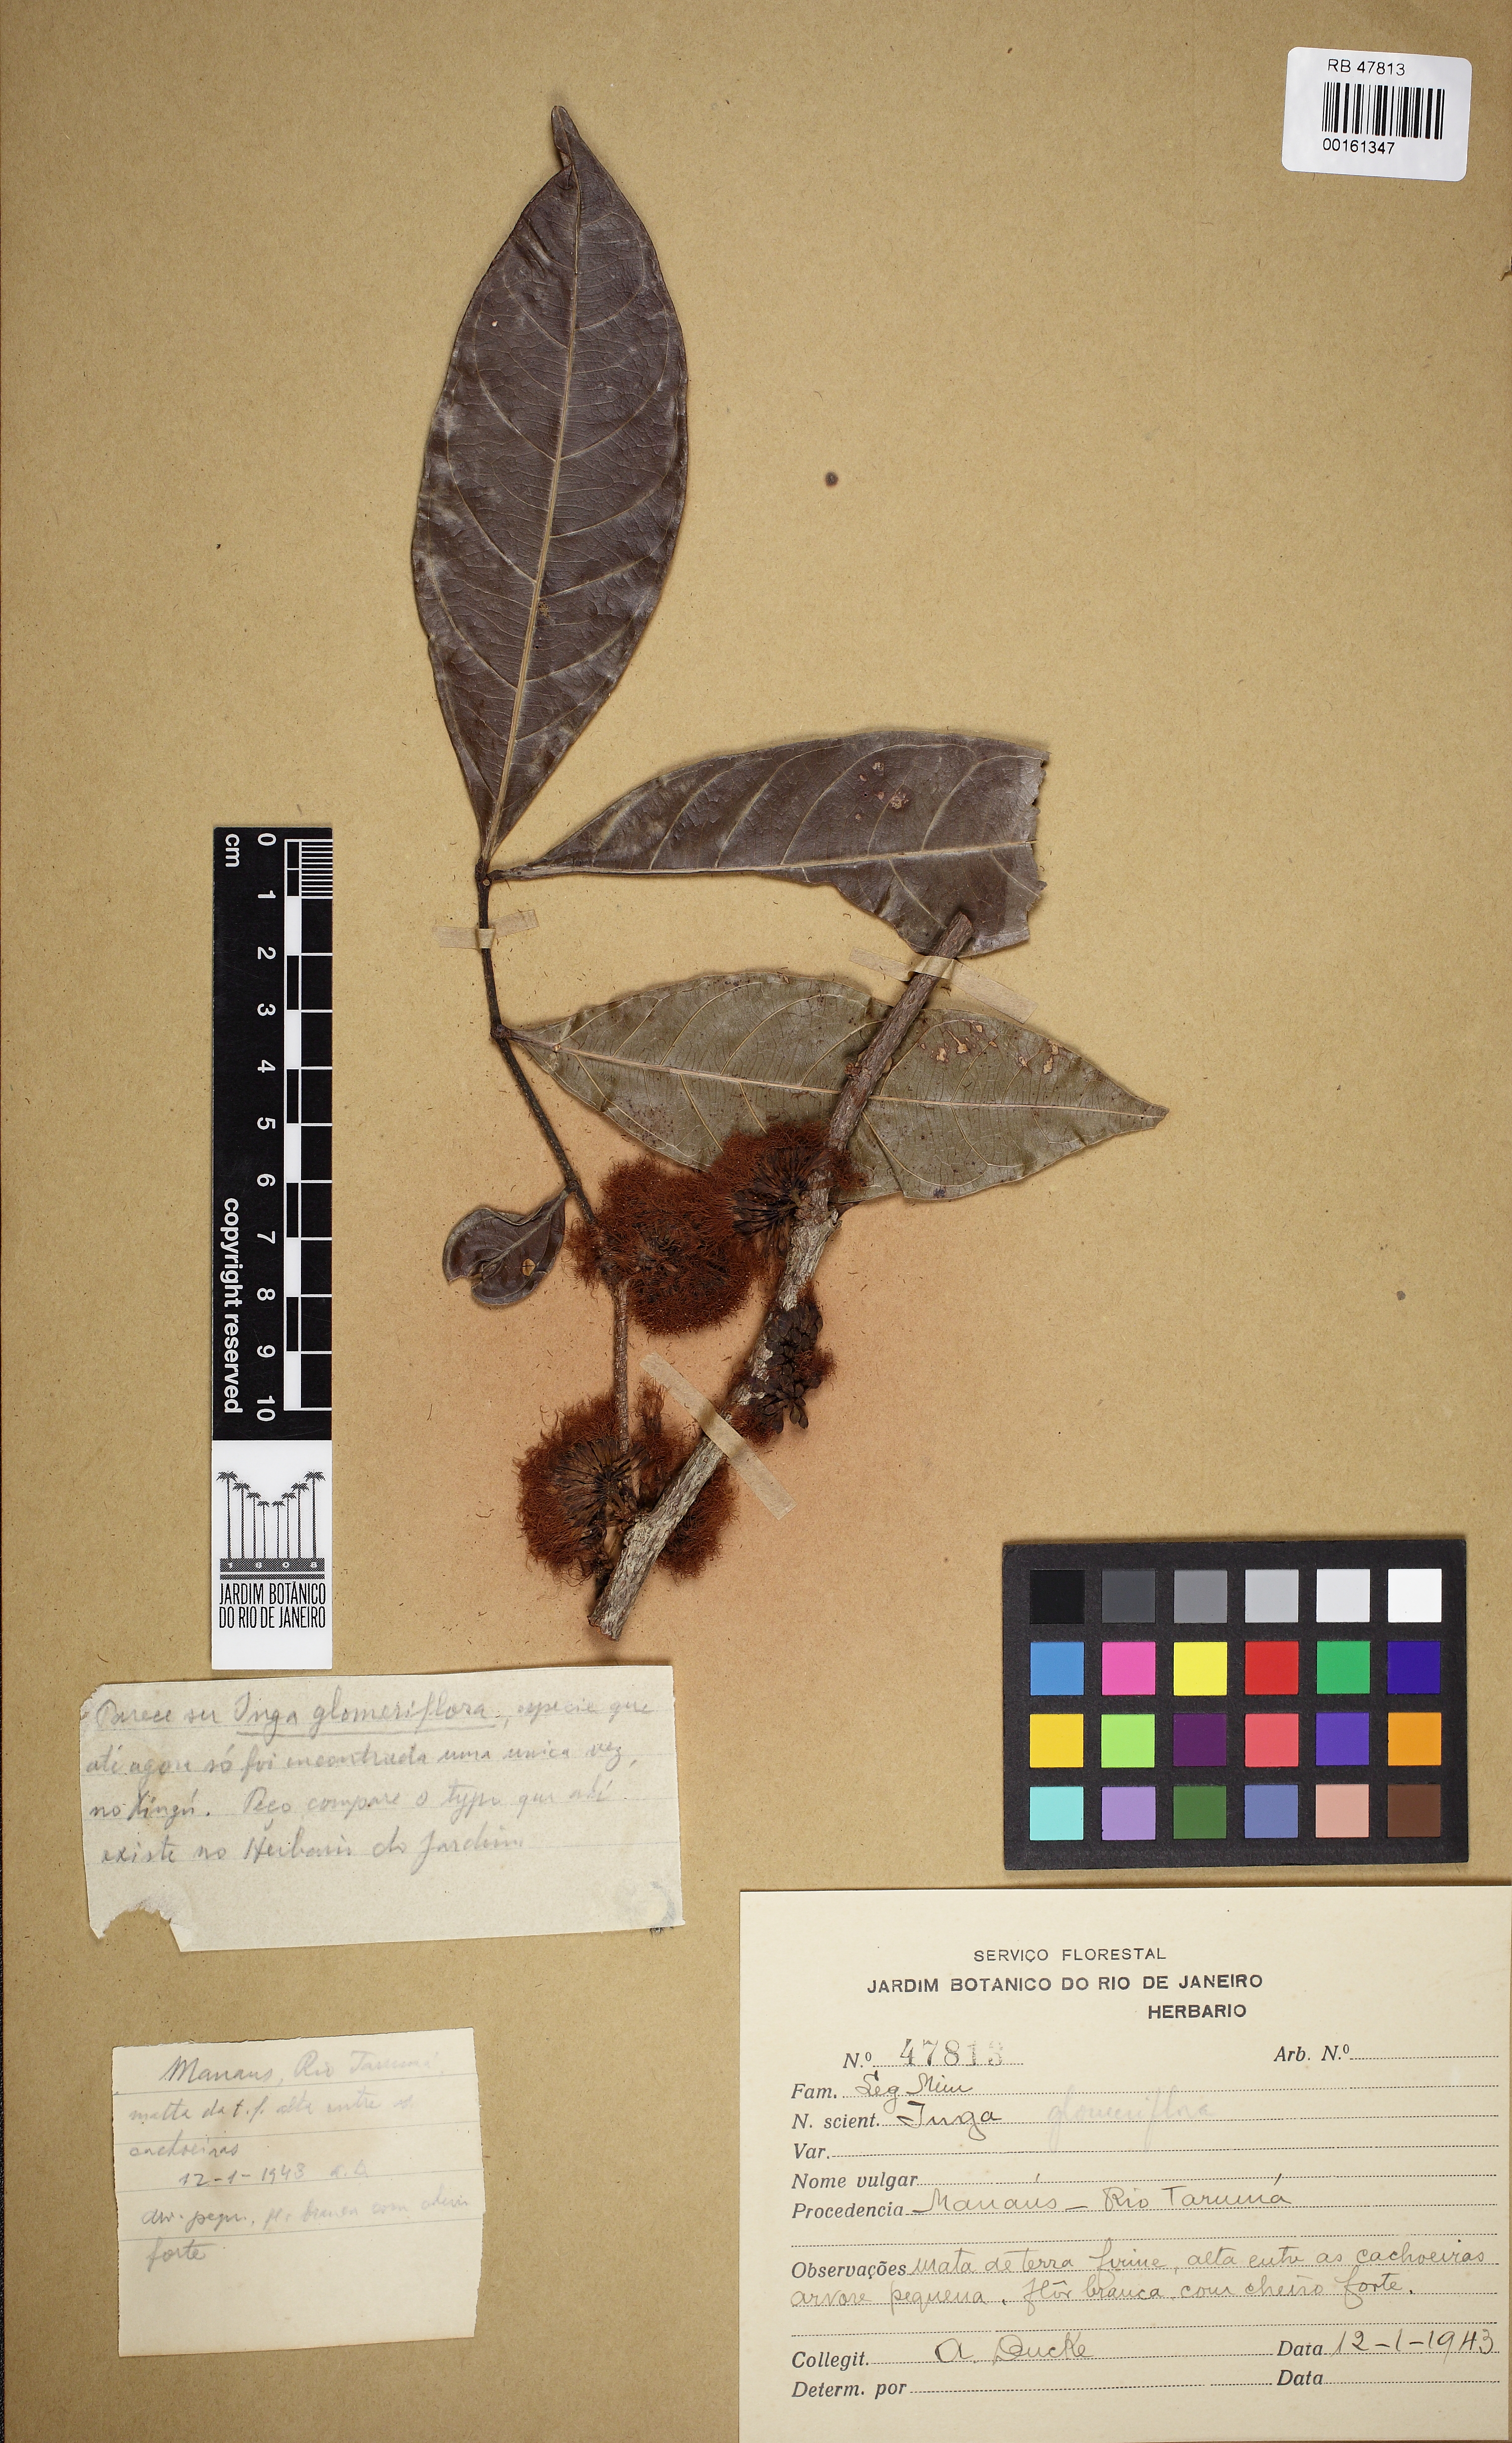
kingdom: Plantae
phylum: Tracheophyta
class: Magnoliopsida
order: Fabales
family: Fabaceae
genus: Inga
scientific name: Inga glomeriflora
